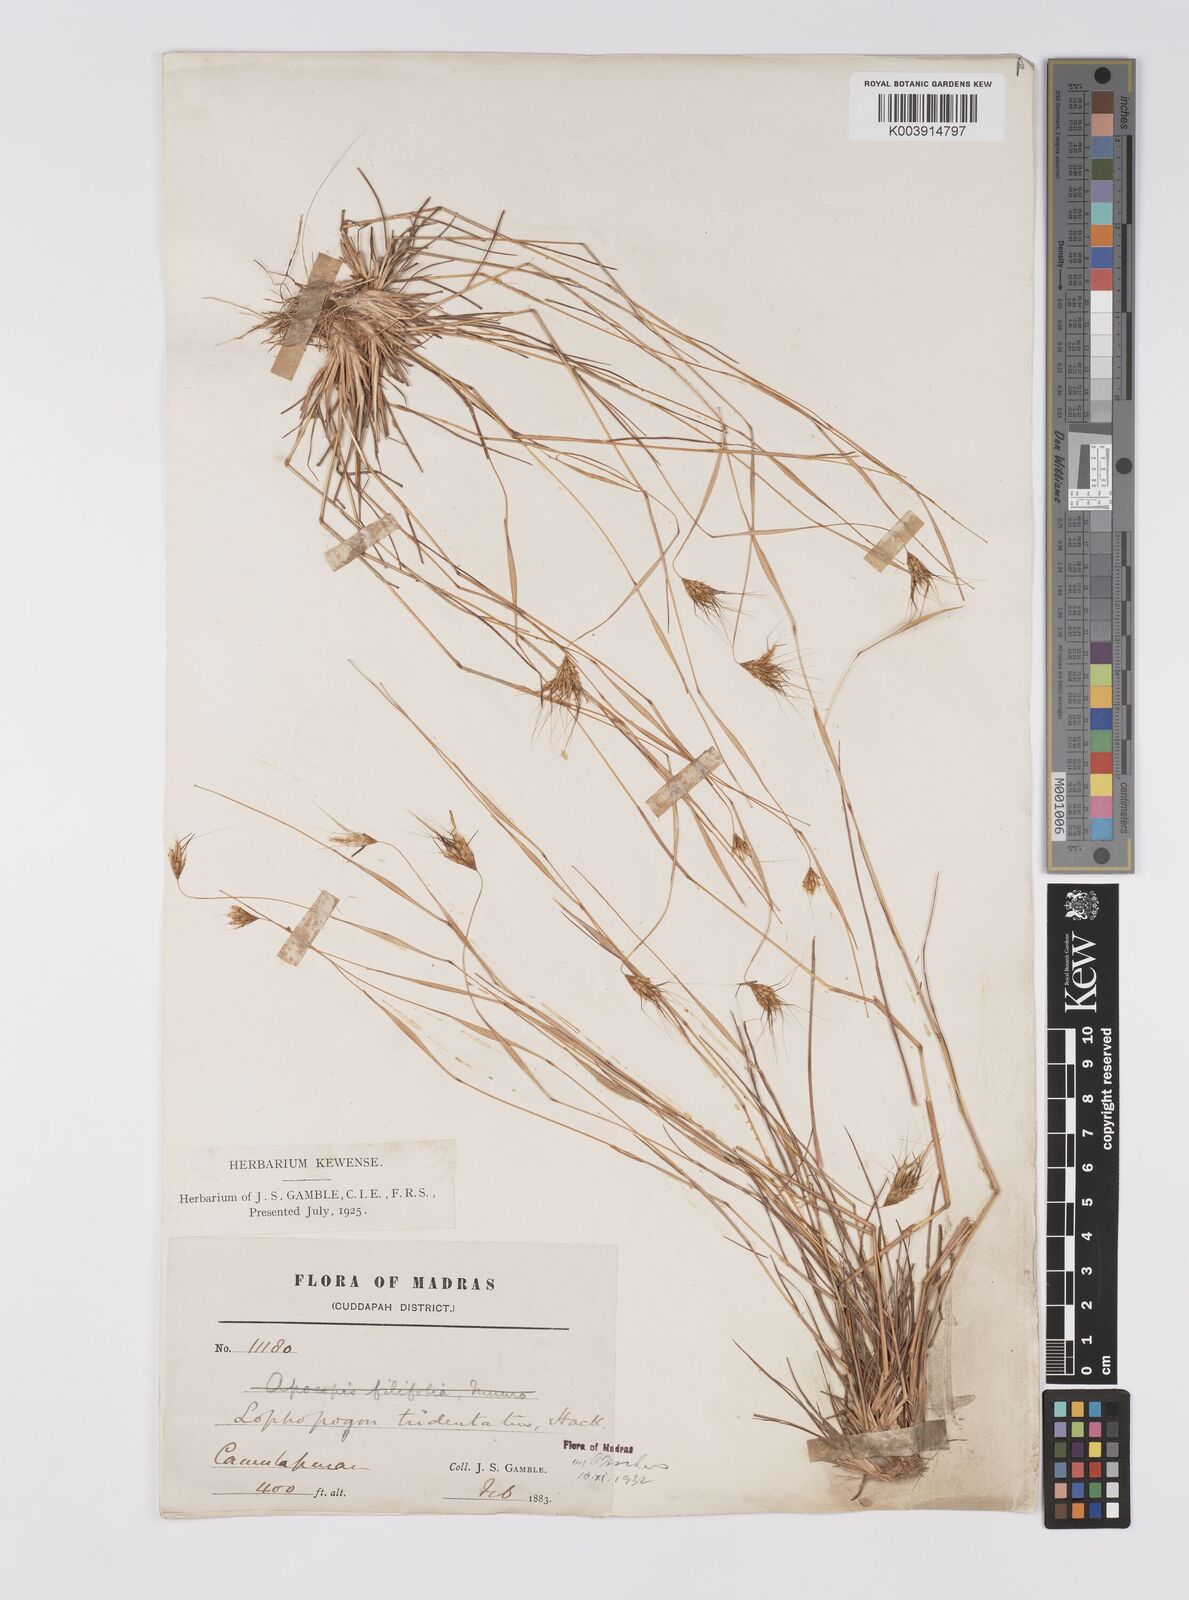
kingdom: Plantae
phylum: Tracheophyta
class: Liliopsida
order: Poales
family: Poaceae
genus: Lophopogon
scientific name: Lophopogon tridentatus
